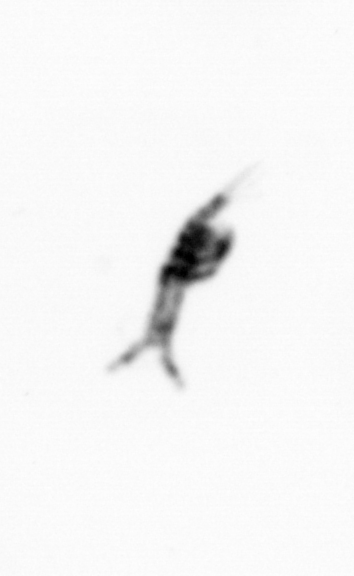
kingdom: Animalia
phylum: Arthropoda
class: Copepoda
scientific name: Copepoda
